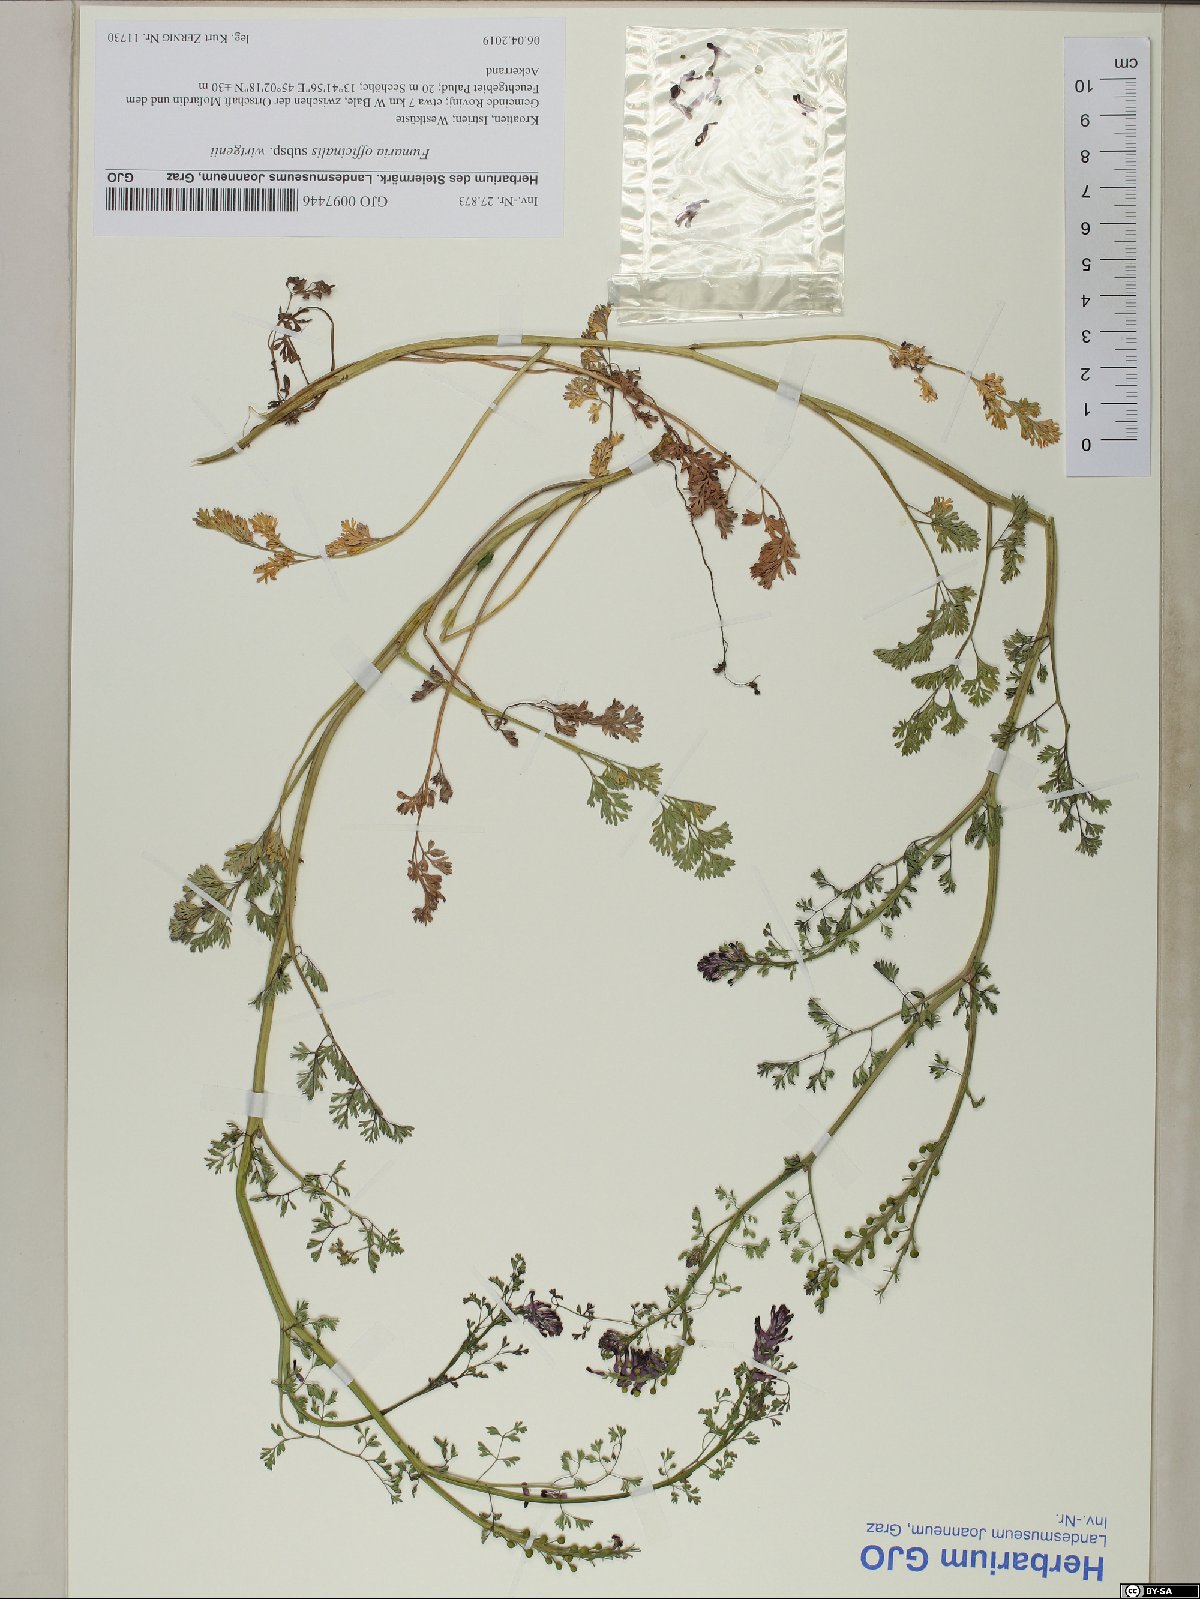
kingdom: Plantae
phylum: Tracheophyta
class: Magnoliopsida
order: Ranunculales
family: Papaveraceae
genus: Fumaria
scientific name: Fumaria wirtgenii
